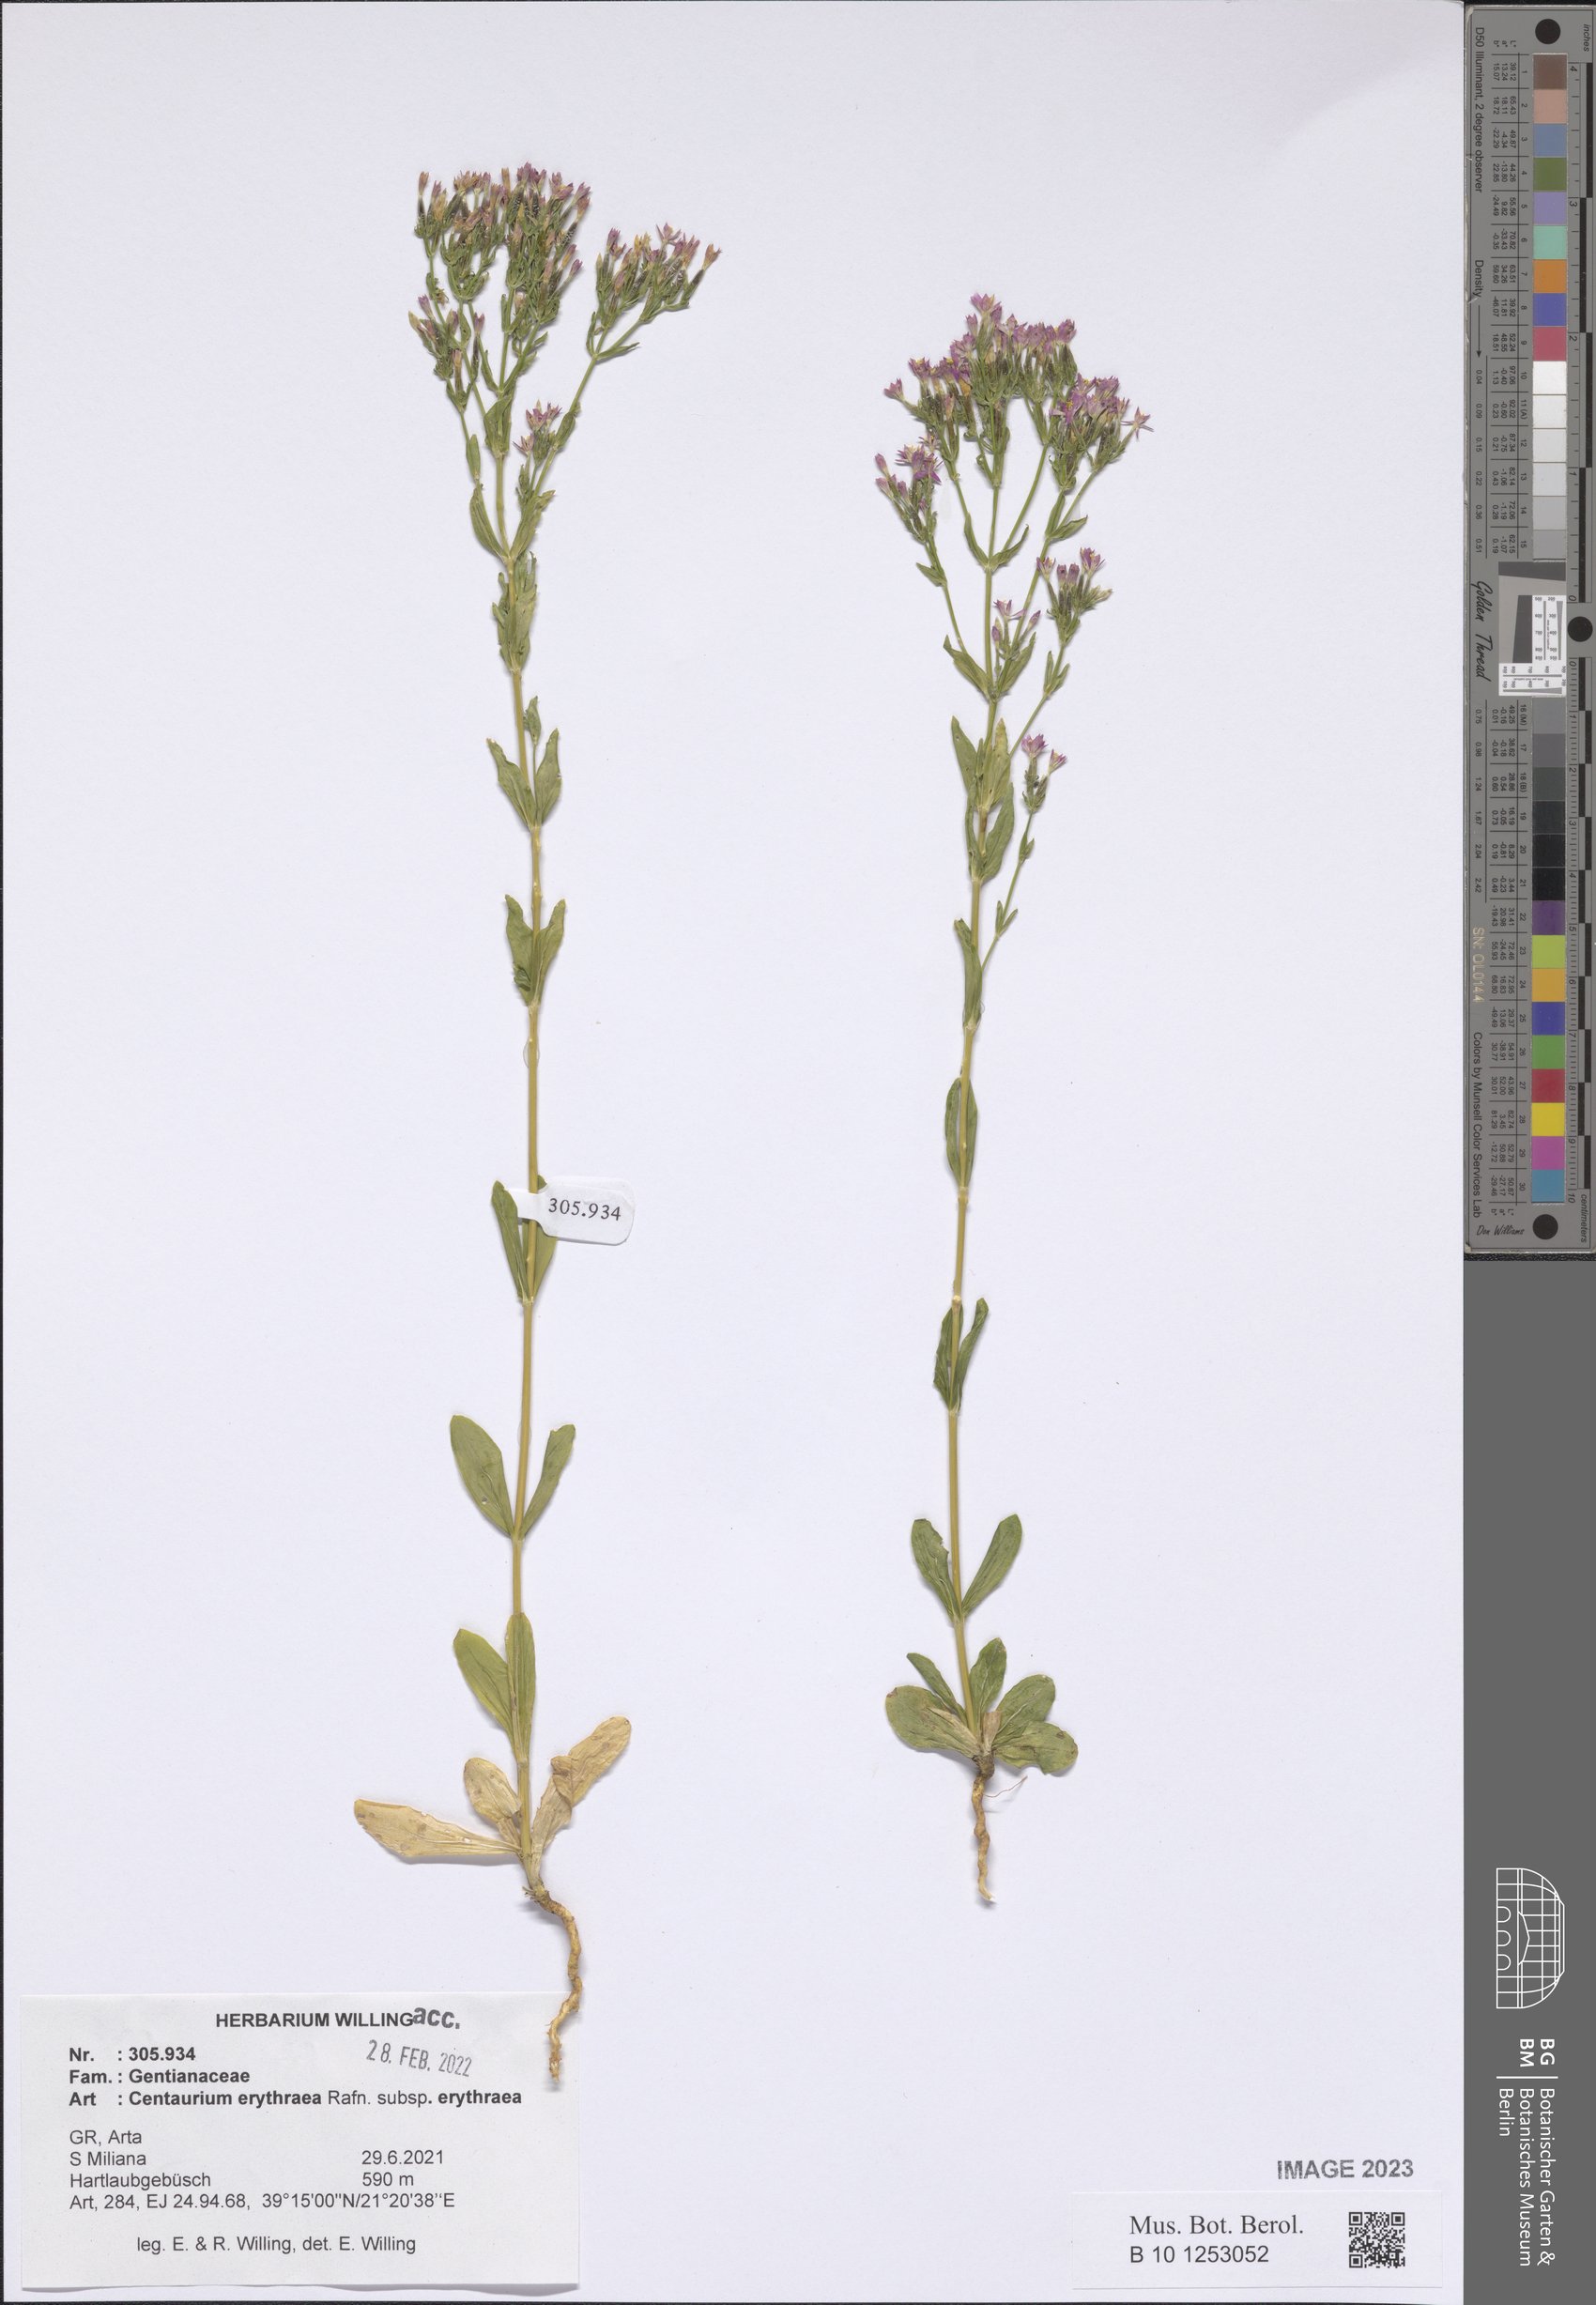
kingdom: Plantae
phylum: Tracheophyta
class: Magnoliopsida
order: Gentianales
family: Gentianaceae
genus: Centaurium
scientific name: Centaurium erythraea
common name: Common centaury
